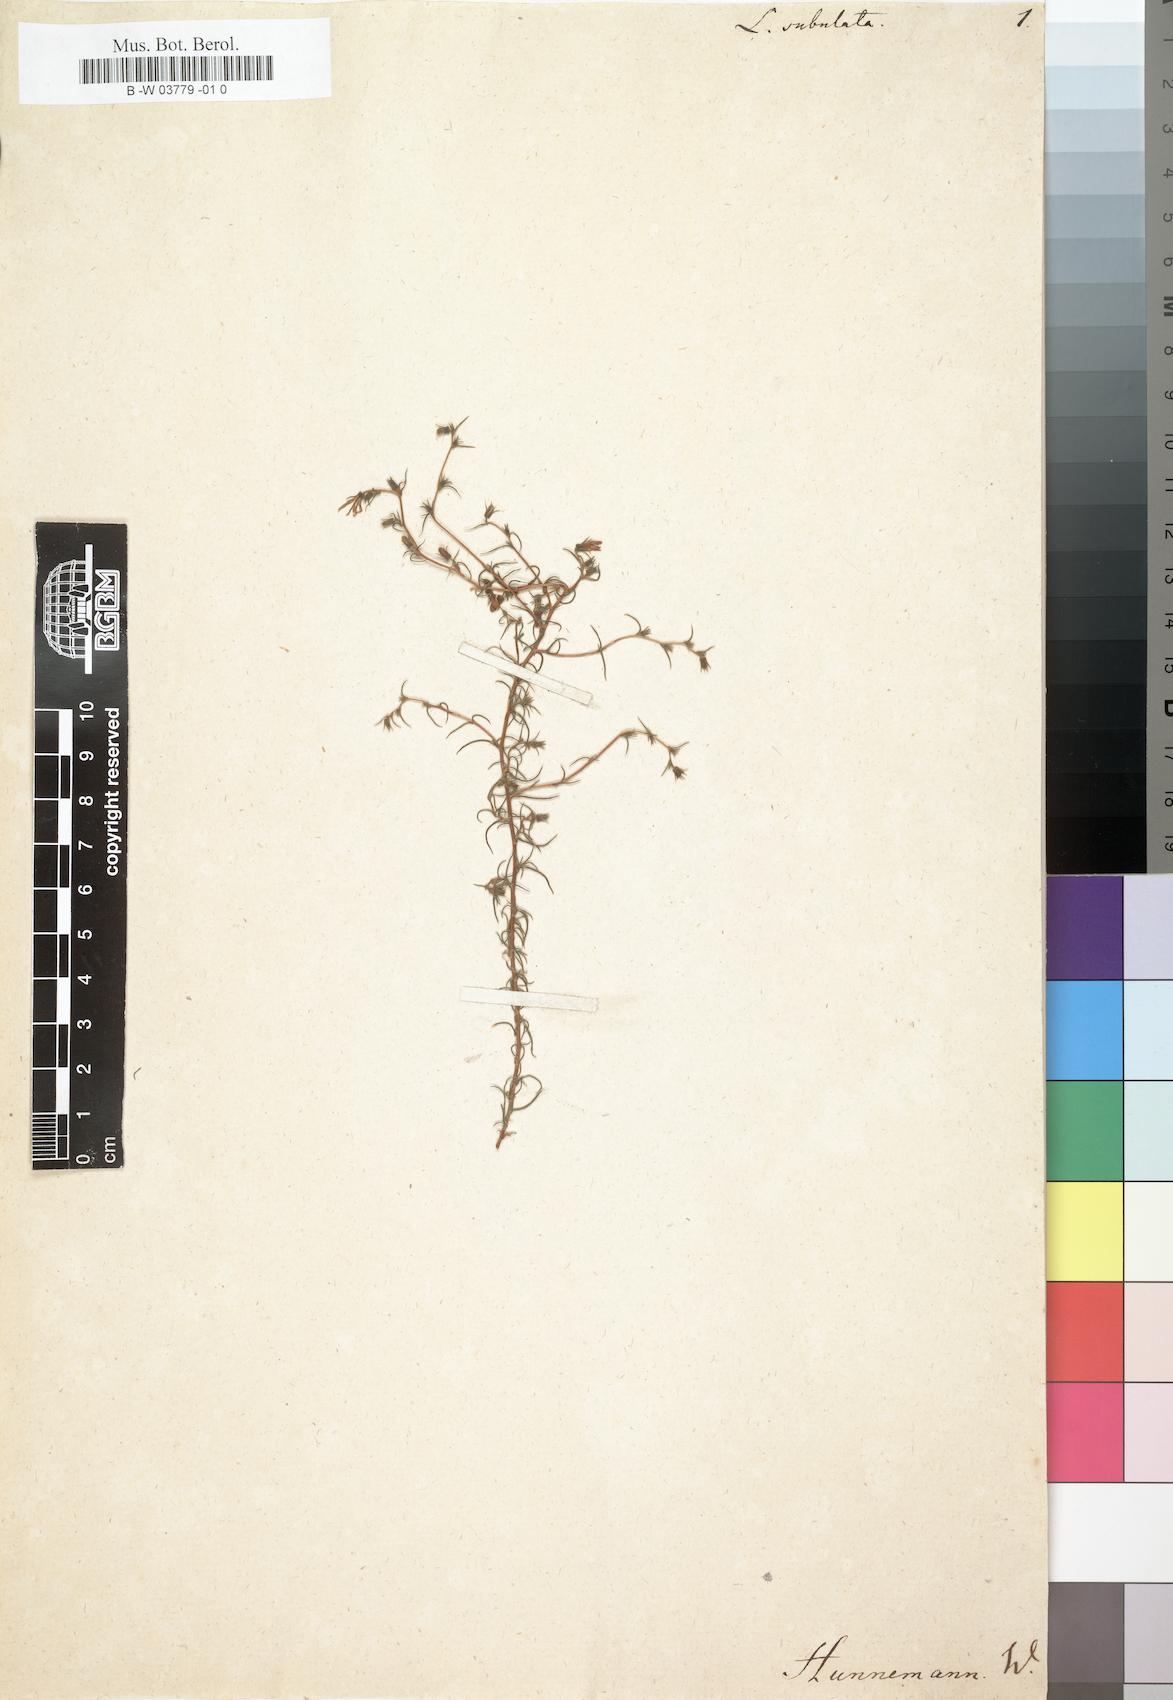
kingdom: Plantae
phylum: Tracheophyta
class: Magnoliopsida
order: Asterales
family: Campanulaceae
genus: Wahlenbergia
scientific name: Wahlenbergia
